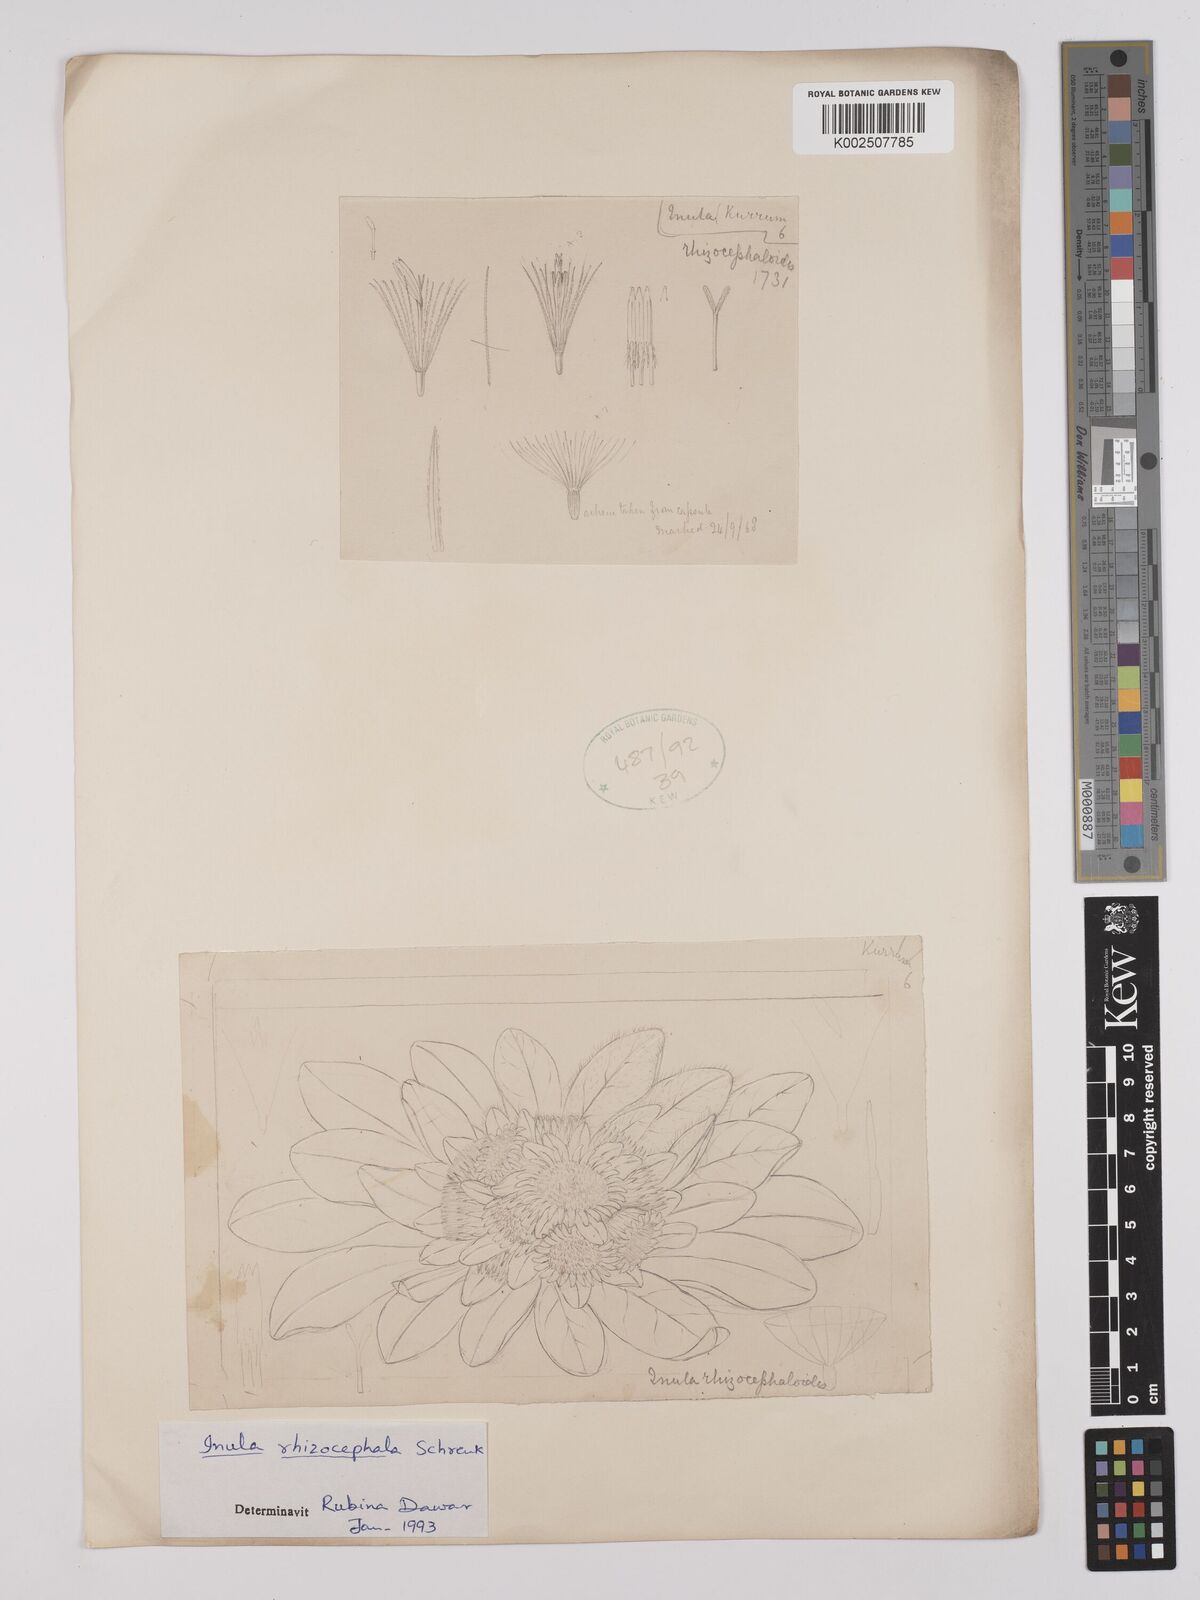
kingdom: Plantae
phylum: Tracheophyta
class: Magnoliopsida
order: Asterales
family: Asteraceae
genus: Inula
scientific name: Inula rhizocephala
